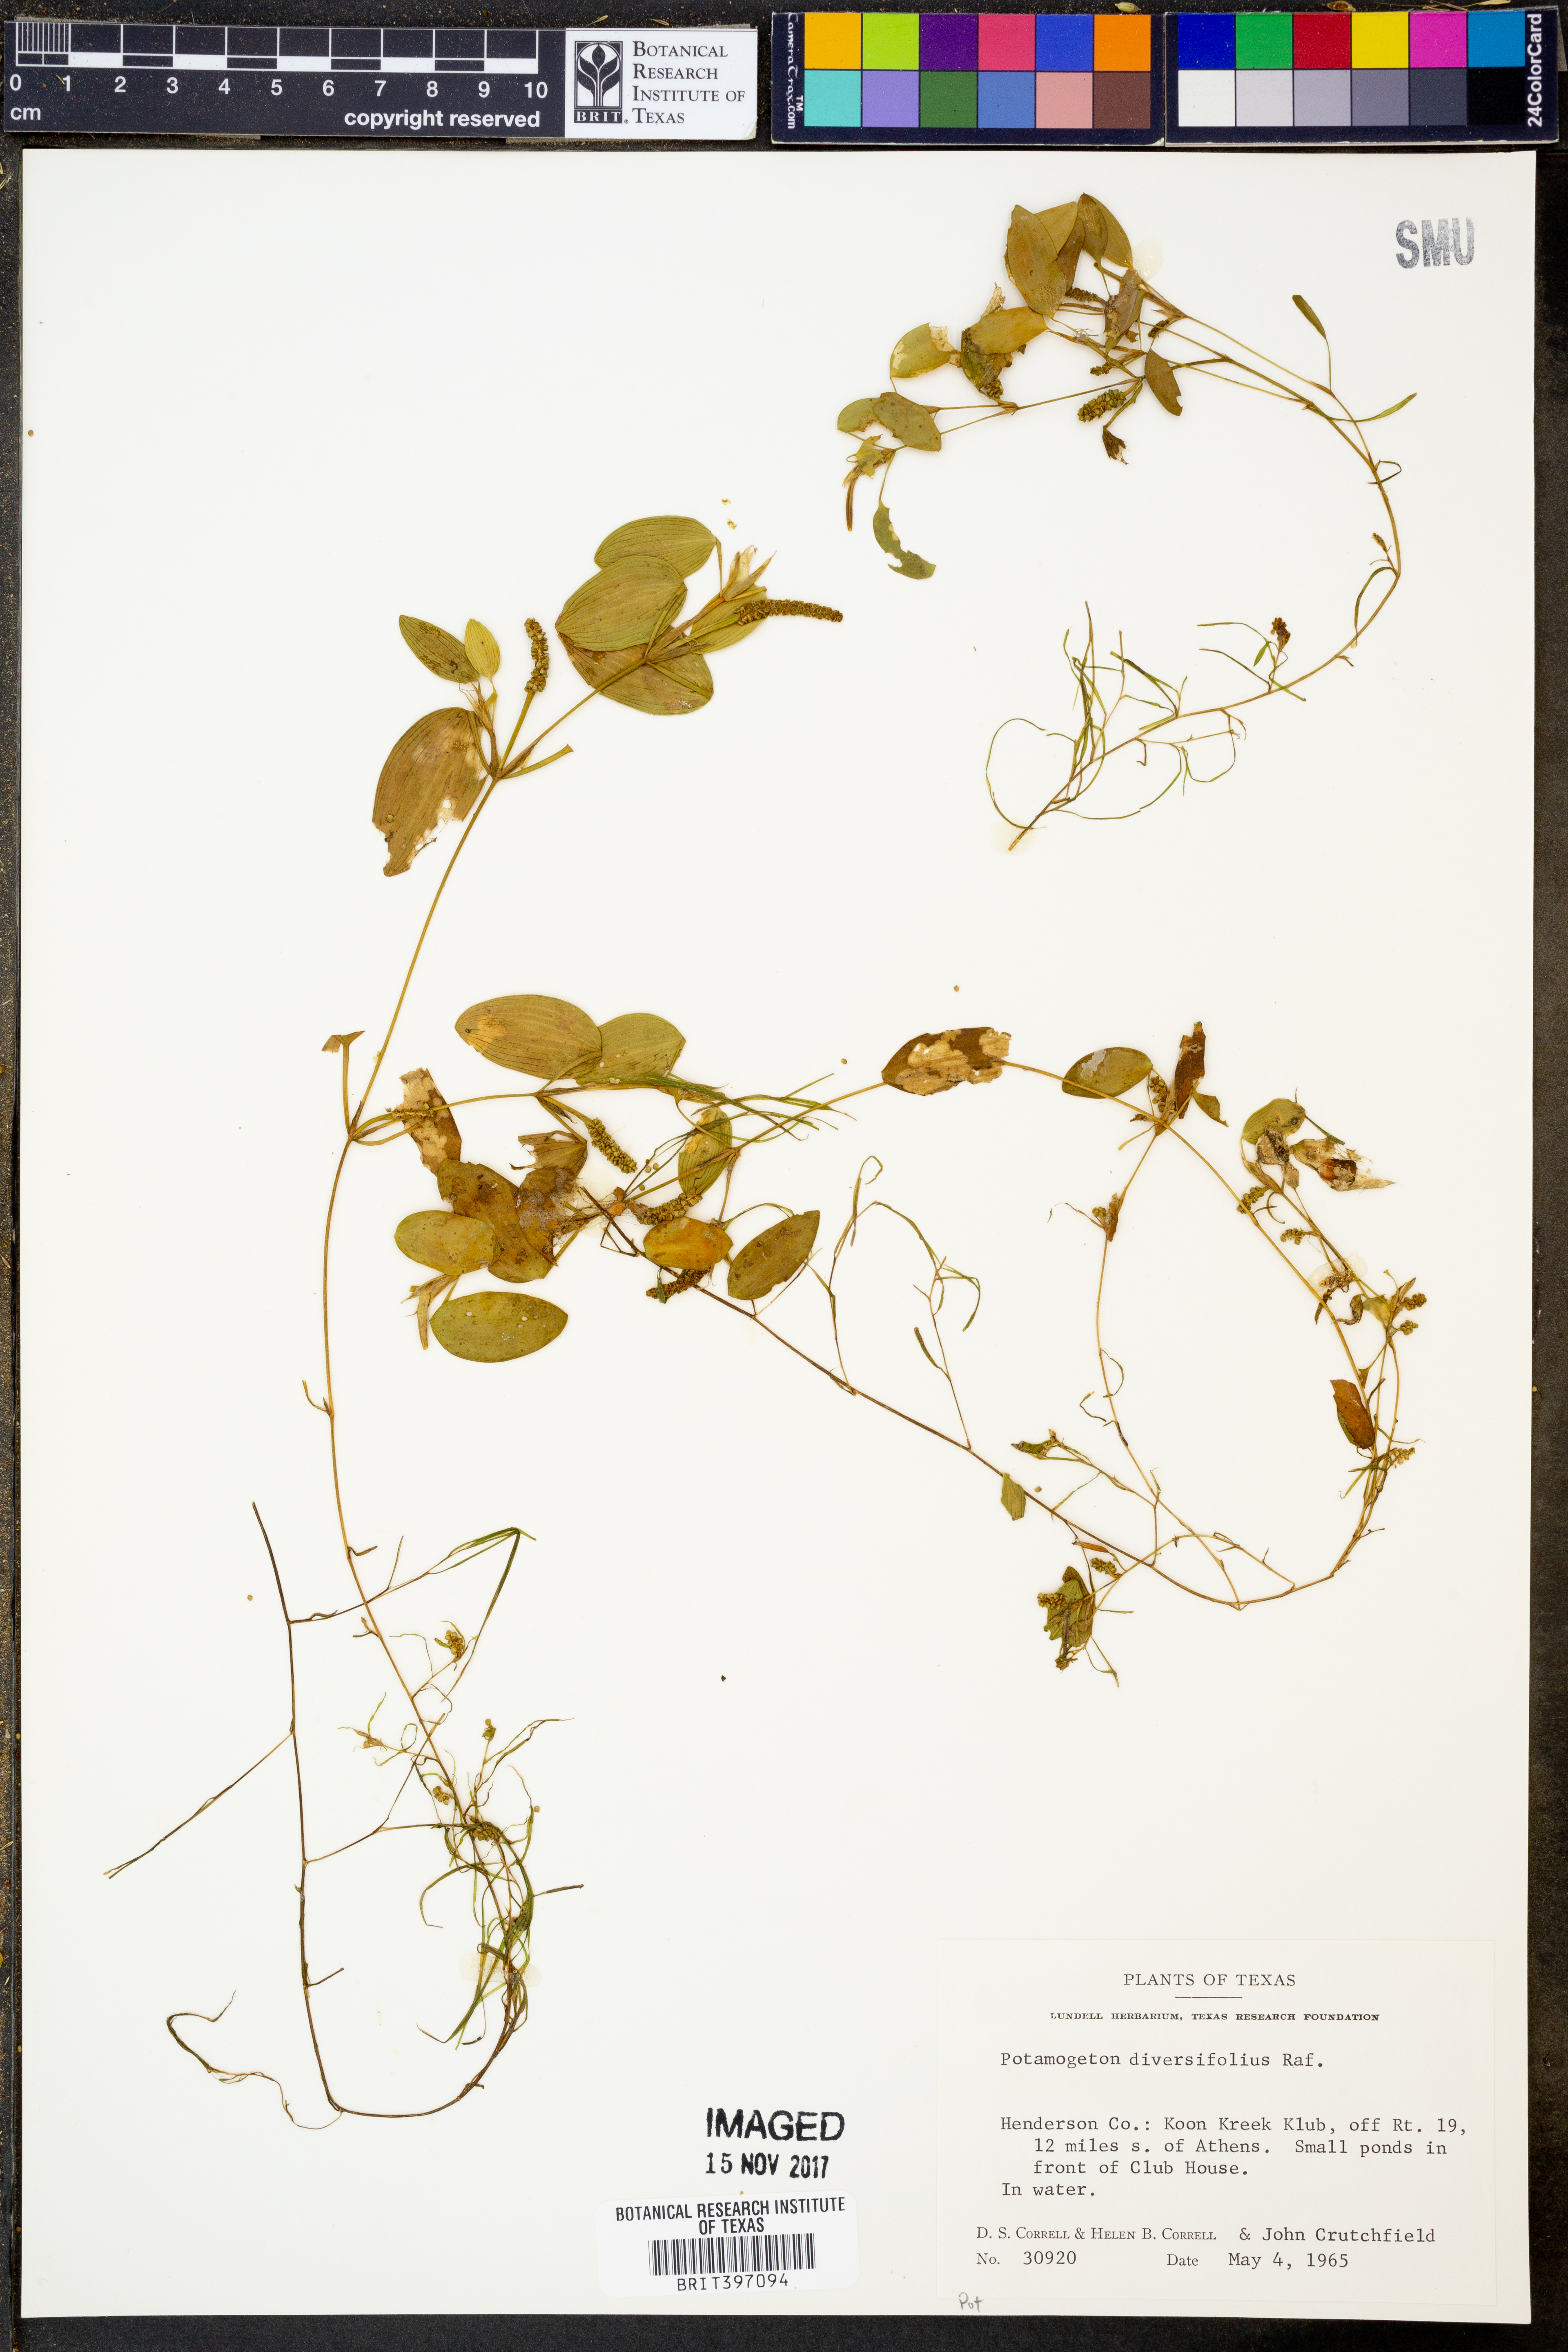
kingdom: Plantae
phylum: Tracheophyta
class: Liliopsida
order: Alismatales
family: Potamogetonaceae
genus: Potamogeton
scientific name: Potamogeton diversifolius
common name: Water-thread pondweed
